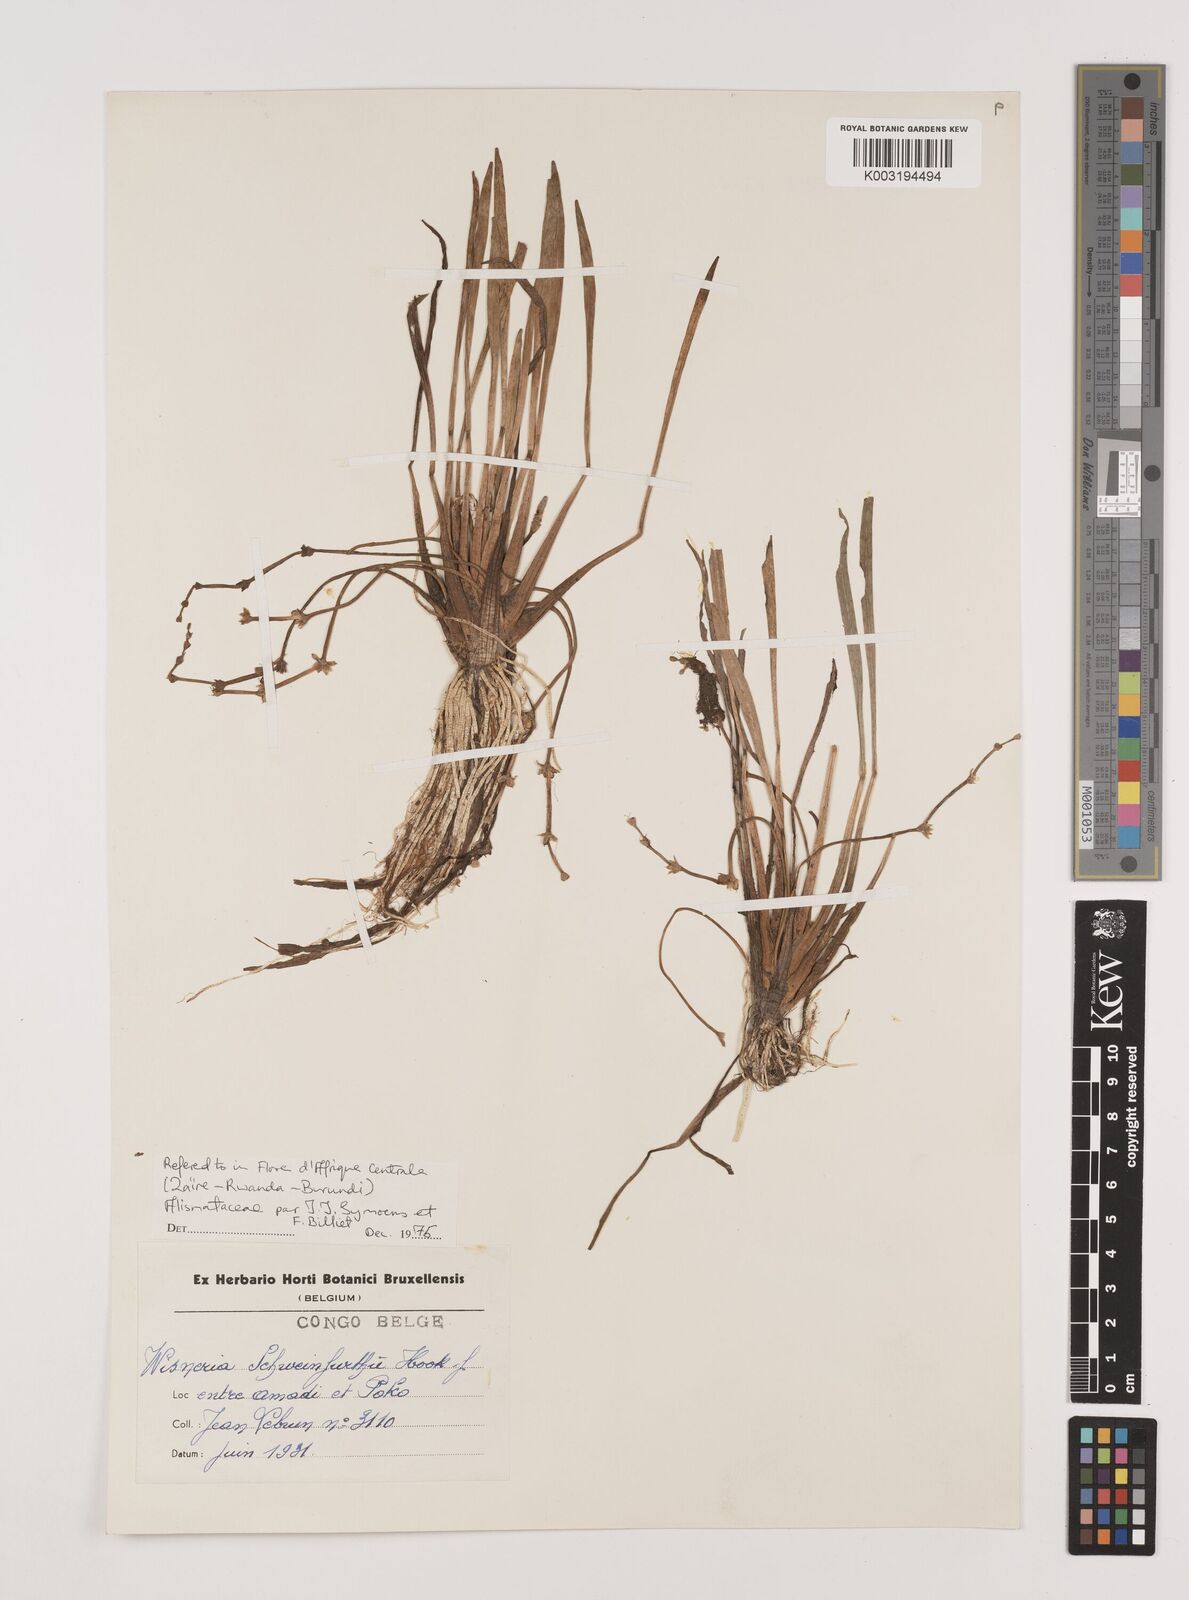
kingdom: Plantae
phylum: Tracheophyta
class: Liliopsida
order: Alismatales
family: Alismataceae
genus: Wiesneria
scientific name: Wiesneria schweinfurthii
